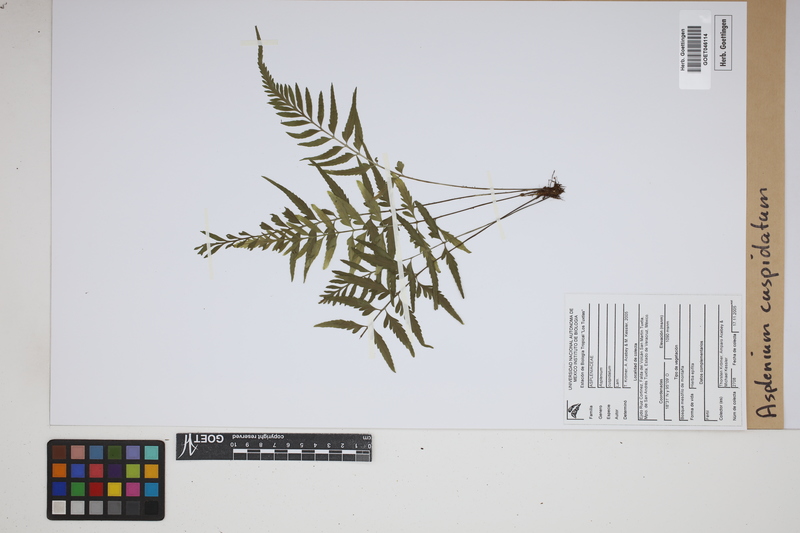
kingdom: Plantae
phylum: Tracheophyta
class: Polypodiopsida
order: Polypodiales
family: Aspleniaceae
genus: Asplenium
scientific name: Asplenium cuspidatum
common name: Eared spleenwort
